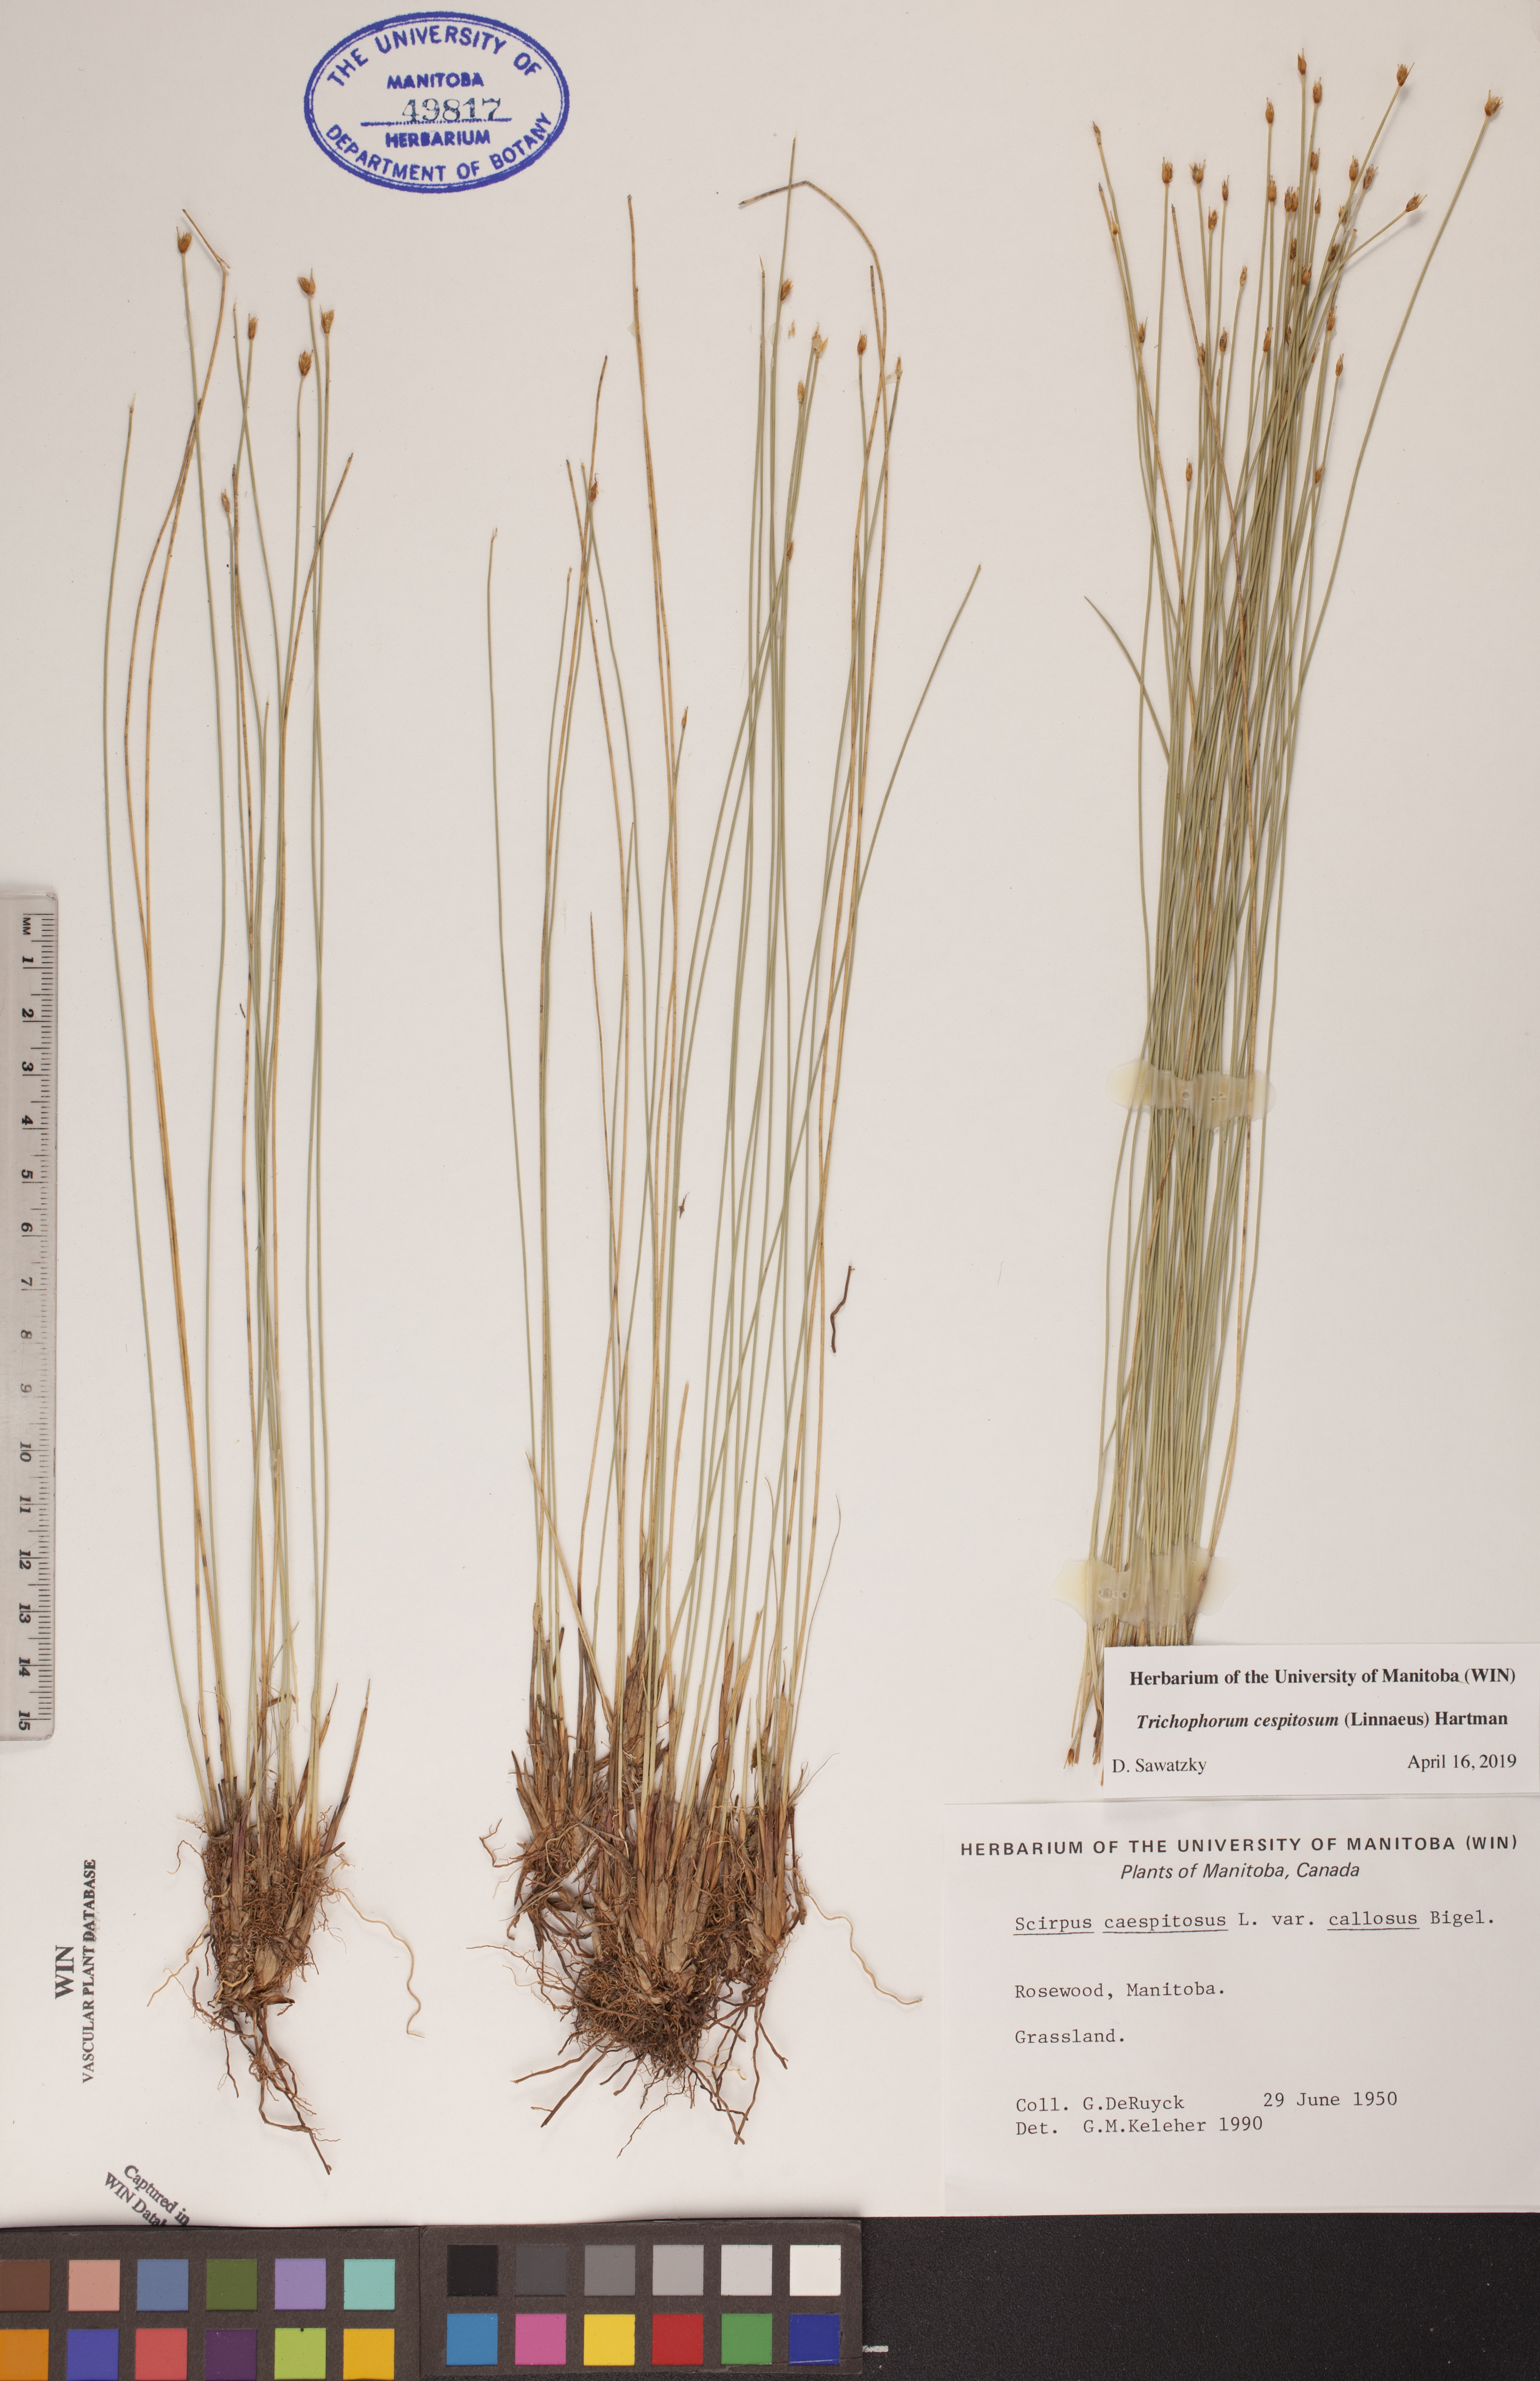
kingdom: Plantae
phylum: Tracheophyta
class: Liliopsida
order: Poales
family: Cyperaceae
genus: Trichophorum
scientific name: Trichophorum cespitosum
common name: Cespitose bulrush
